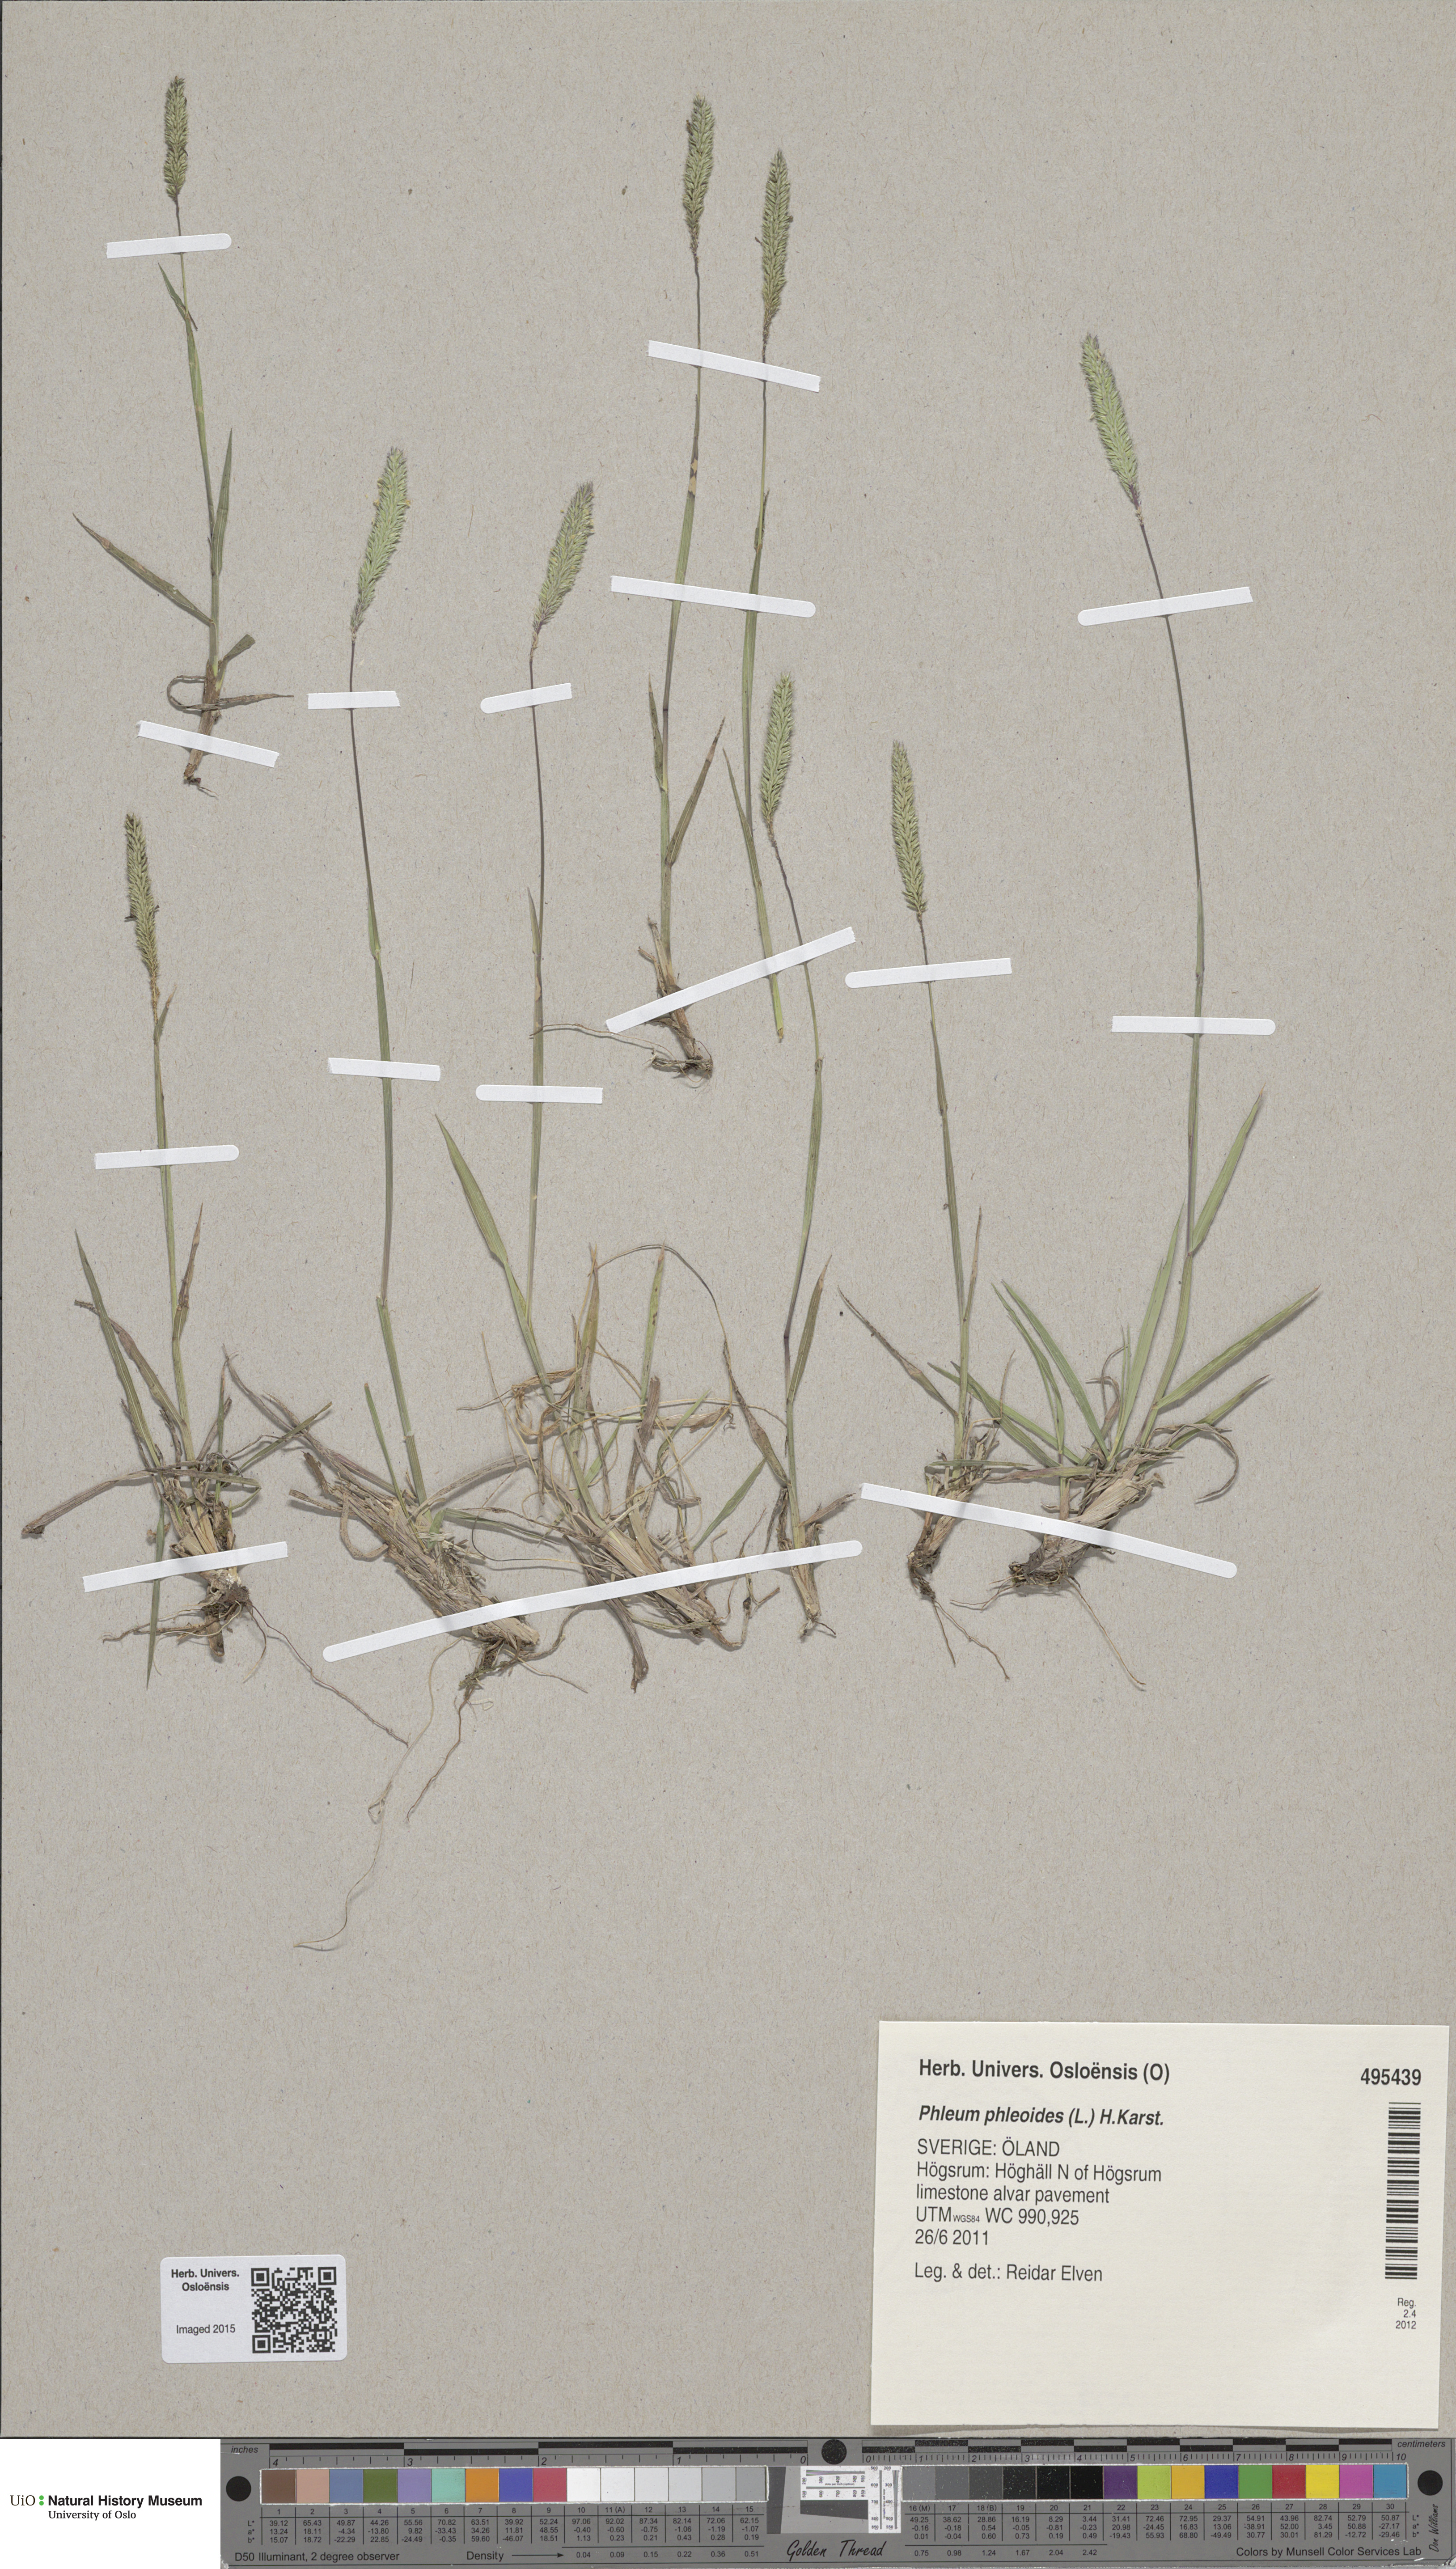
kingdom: Plantae
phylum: Tracheophyta
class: Liliopsida
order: Poales
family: Poaceae
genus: Phleum
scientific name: Phleum phleoides
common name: Purple-stem cat's-tail
